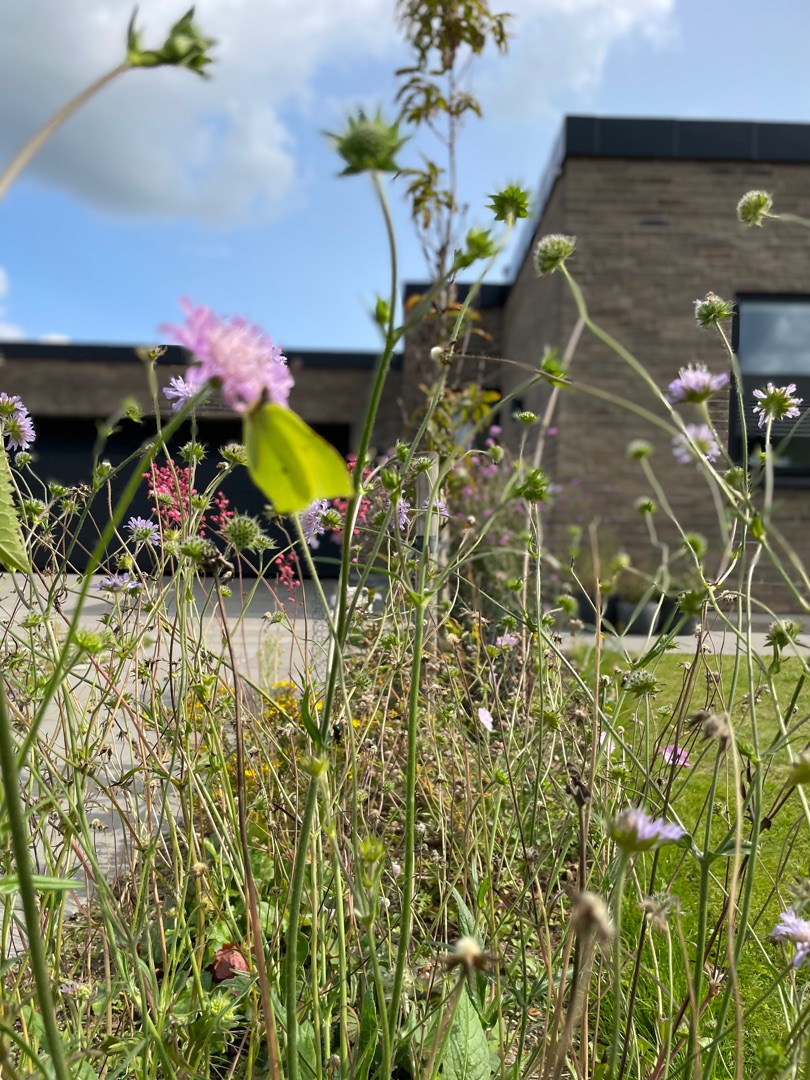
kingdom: Animalia
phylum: Arthropoda
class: Insecta
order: Lepidoptera
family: Pieridae
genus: Gonepteryx
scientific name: Gonepteryx rhamni
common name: Citronsommerfugl
